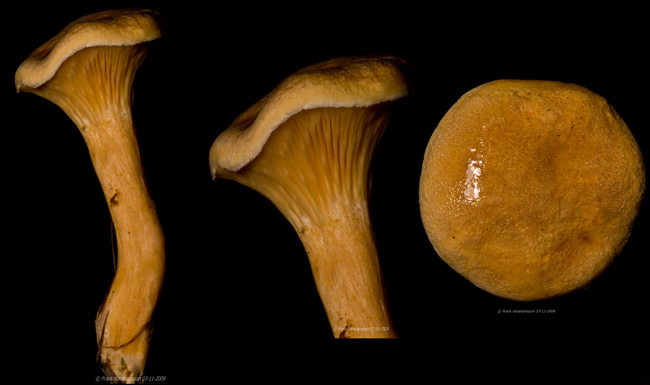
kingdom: Fungi
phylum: Basidiomycota
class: Agaricomycetes
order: Boletales
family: Hygrophoropsidaceae
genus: Hygrophoropsis
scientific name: Hygrophoropsis aurantiaca
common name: almindelig orangekantarel
